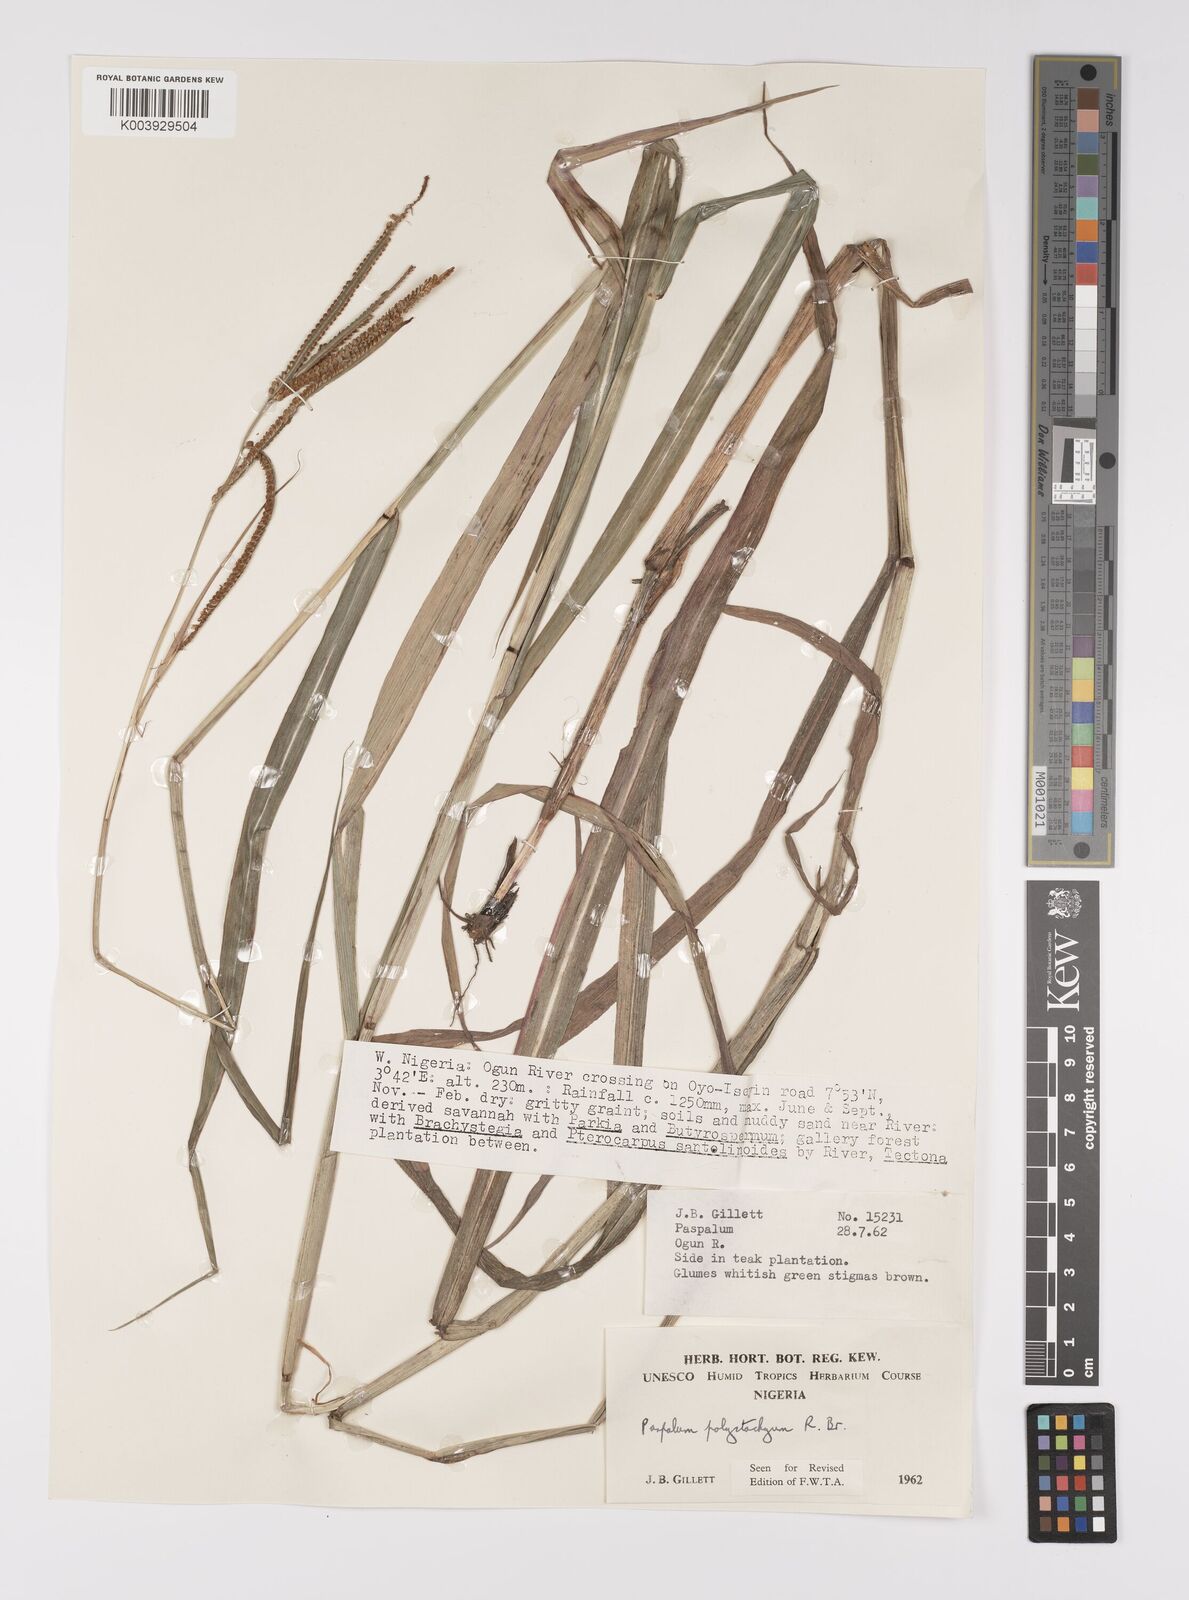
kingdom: Plantae
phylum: Tracheophyta
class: Liliopsida
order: Poales
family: Poaceae
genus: Paspalum
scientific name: Paspalum scrobiculatum
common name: Kodo millet
